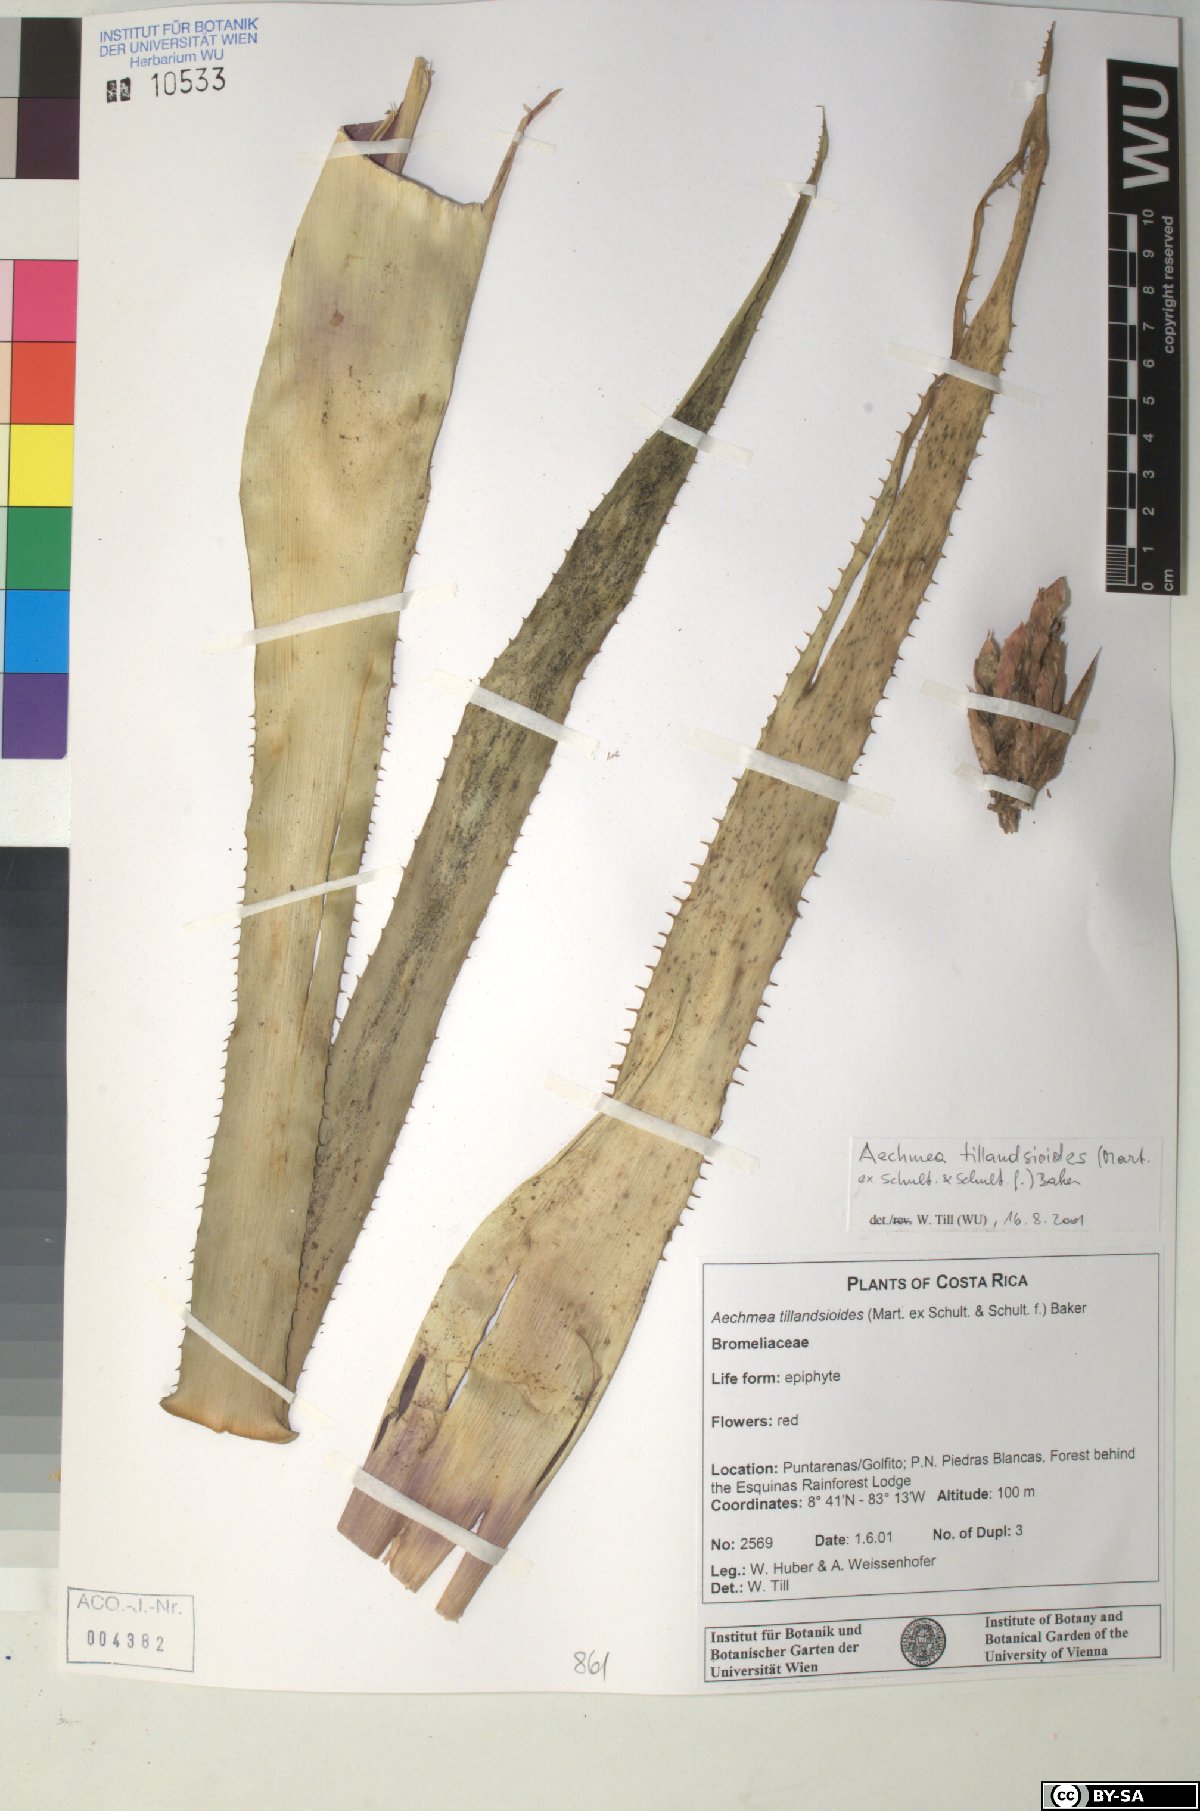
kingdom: Plantae
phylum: Tracheophyta
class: Liliopsida
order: Poales
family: Bromeliaceae
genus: Aechmea
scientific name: Aechmea tillandsioides
